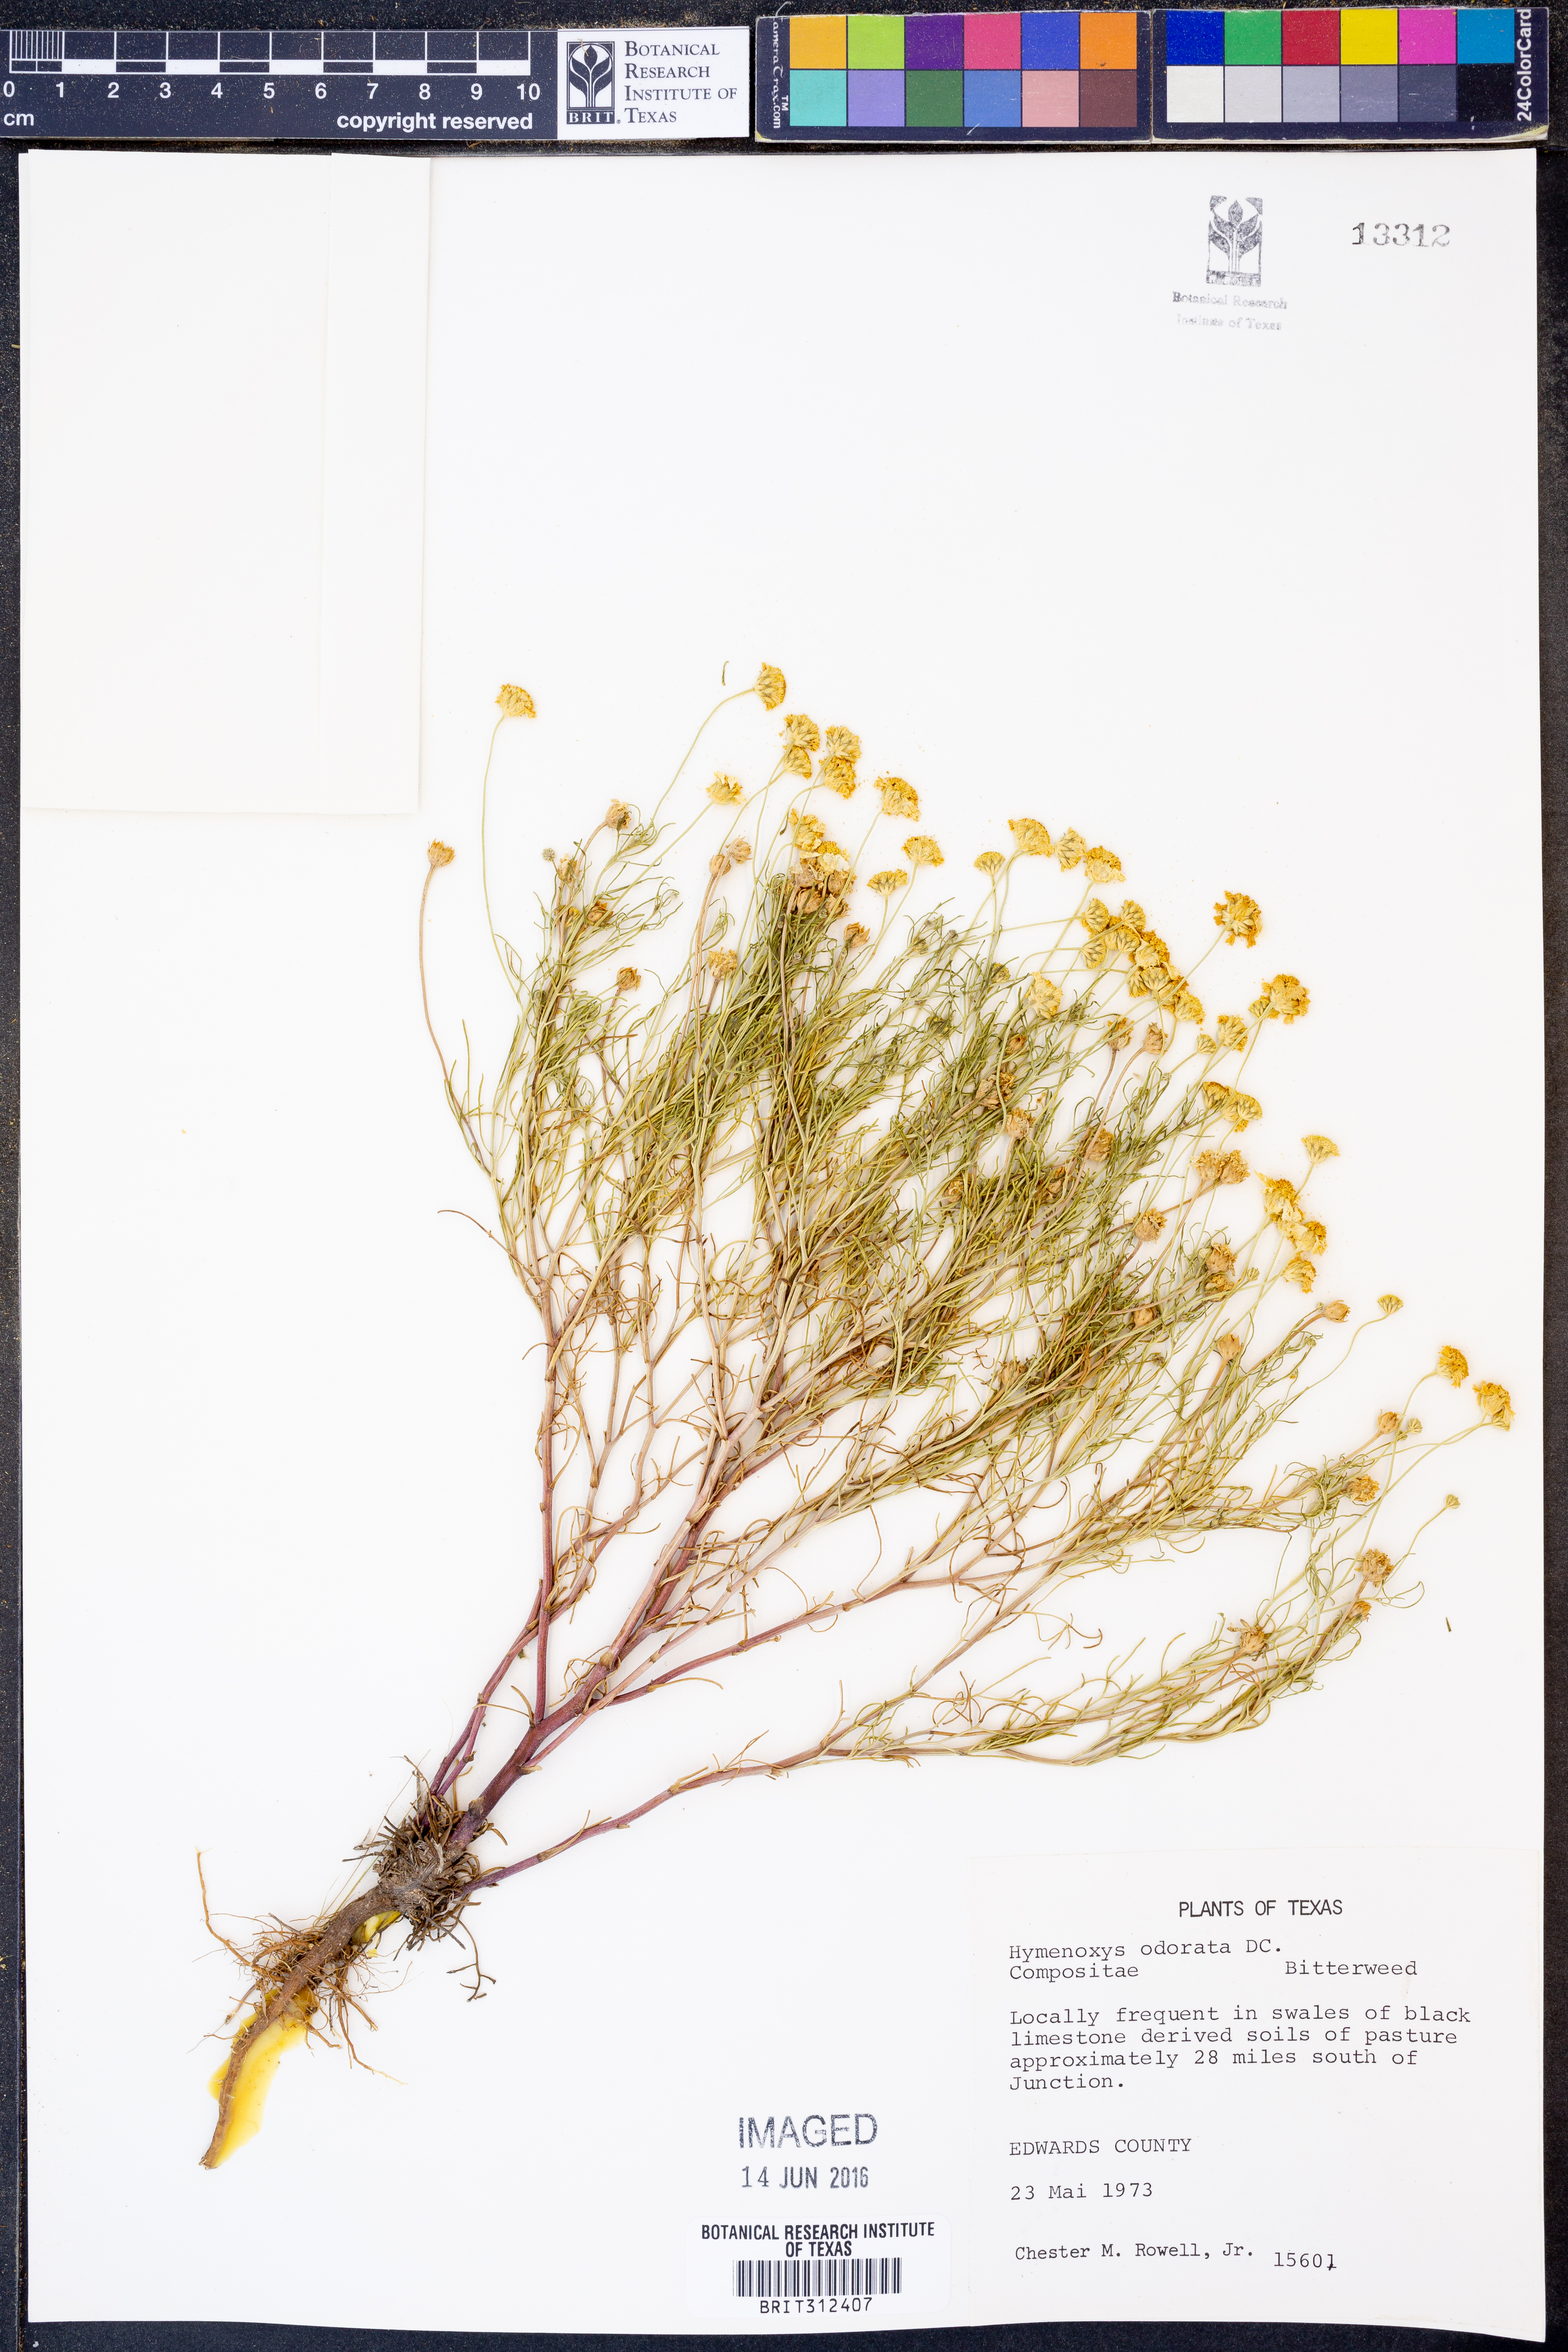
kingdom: Plantae
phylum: Tracheophyta
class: Magnoliopsida
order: Asterales
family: Asteraceae
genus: Hymenoxys
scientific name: Hymenoxys odorata
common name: Bitter rubberweed
